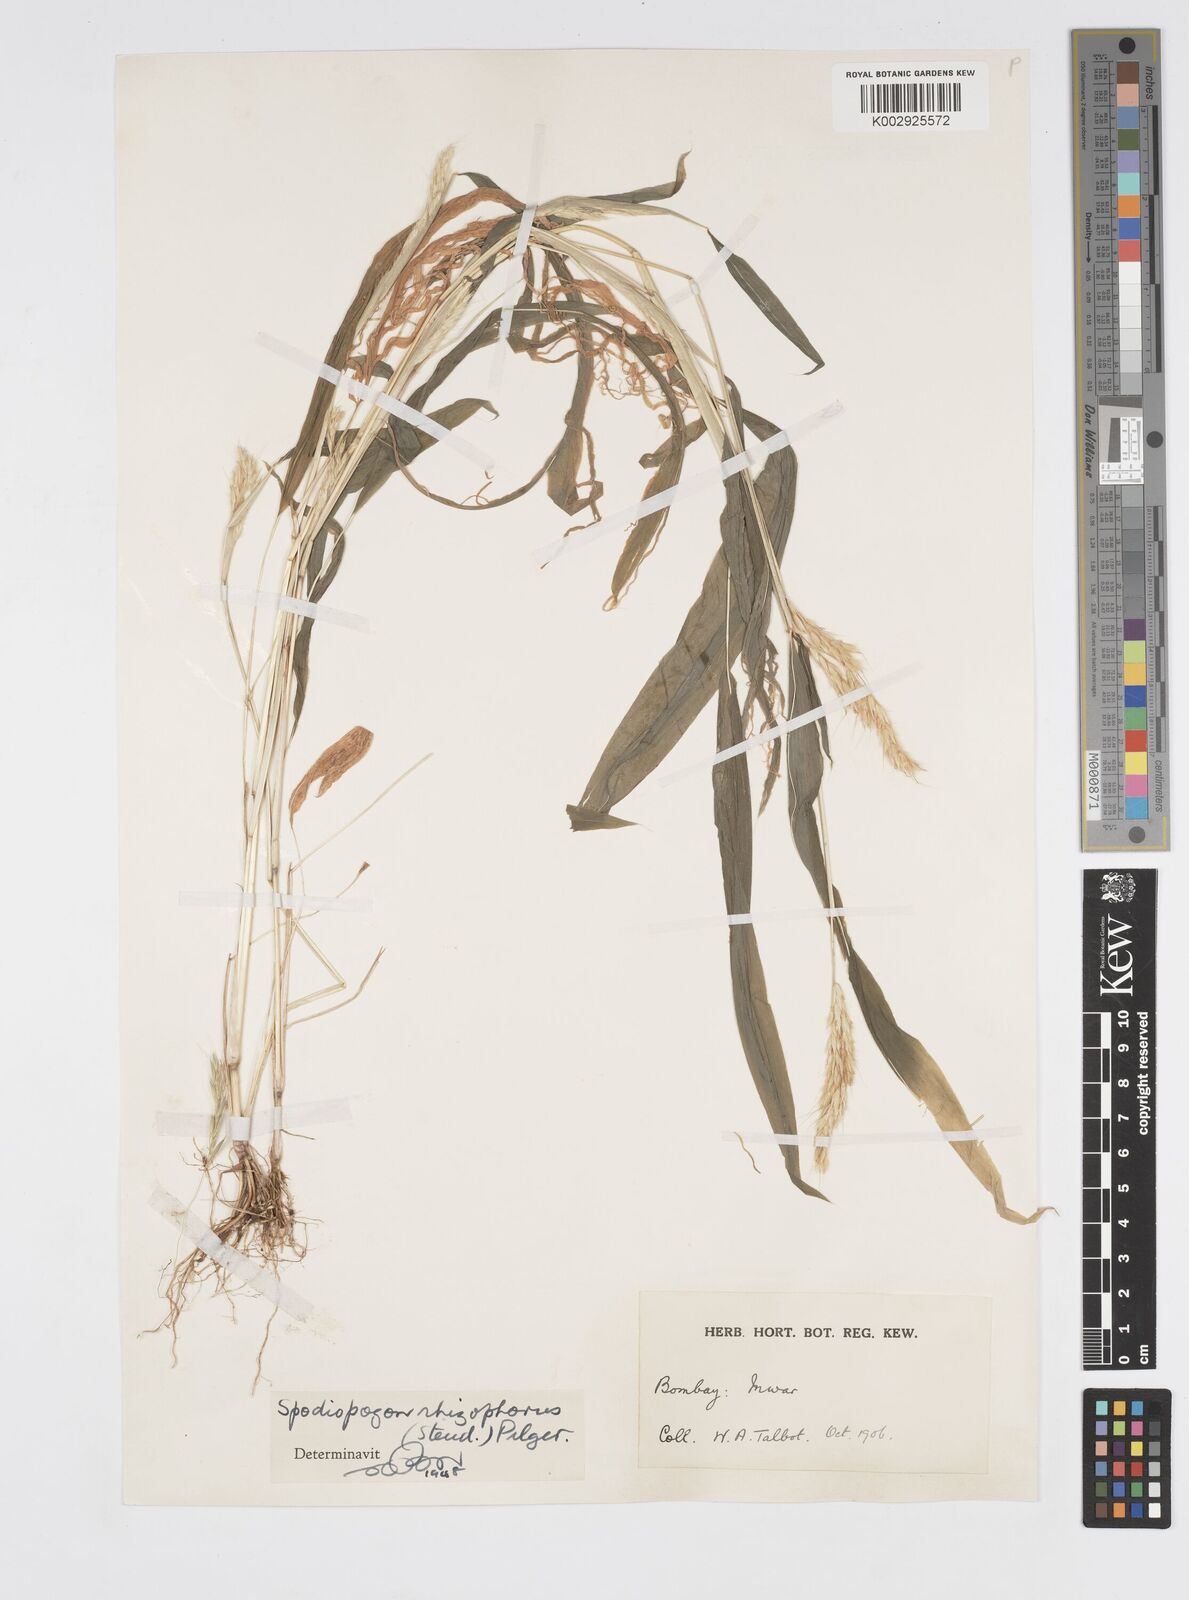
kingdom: Plantae
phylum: Tracheophyta
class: Liliopsida
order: Poales
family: Poaceae
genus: Spodiopogon
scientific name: Spodiopogon rhizophorus
